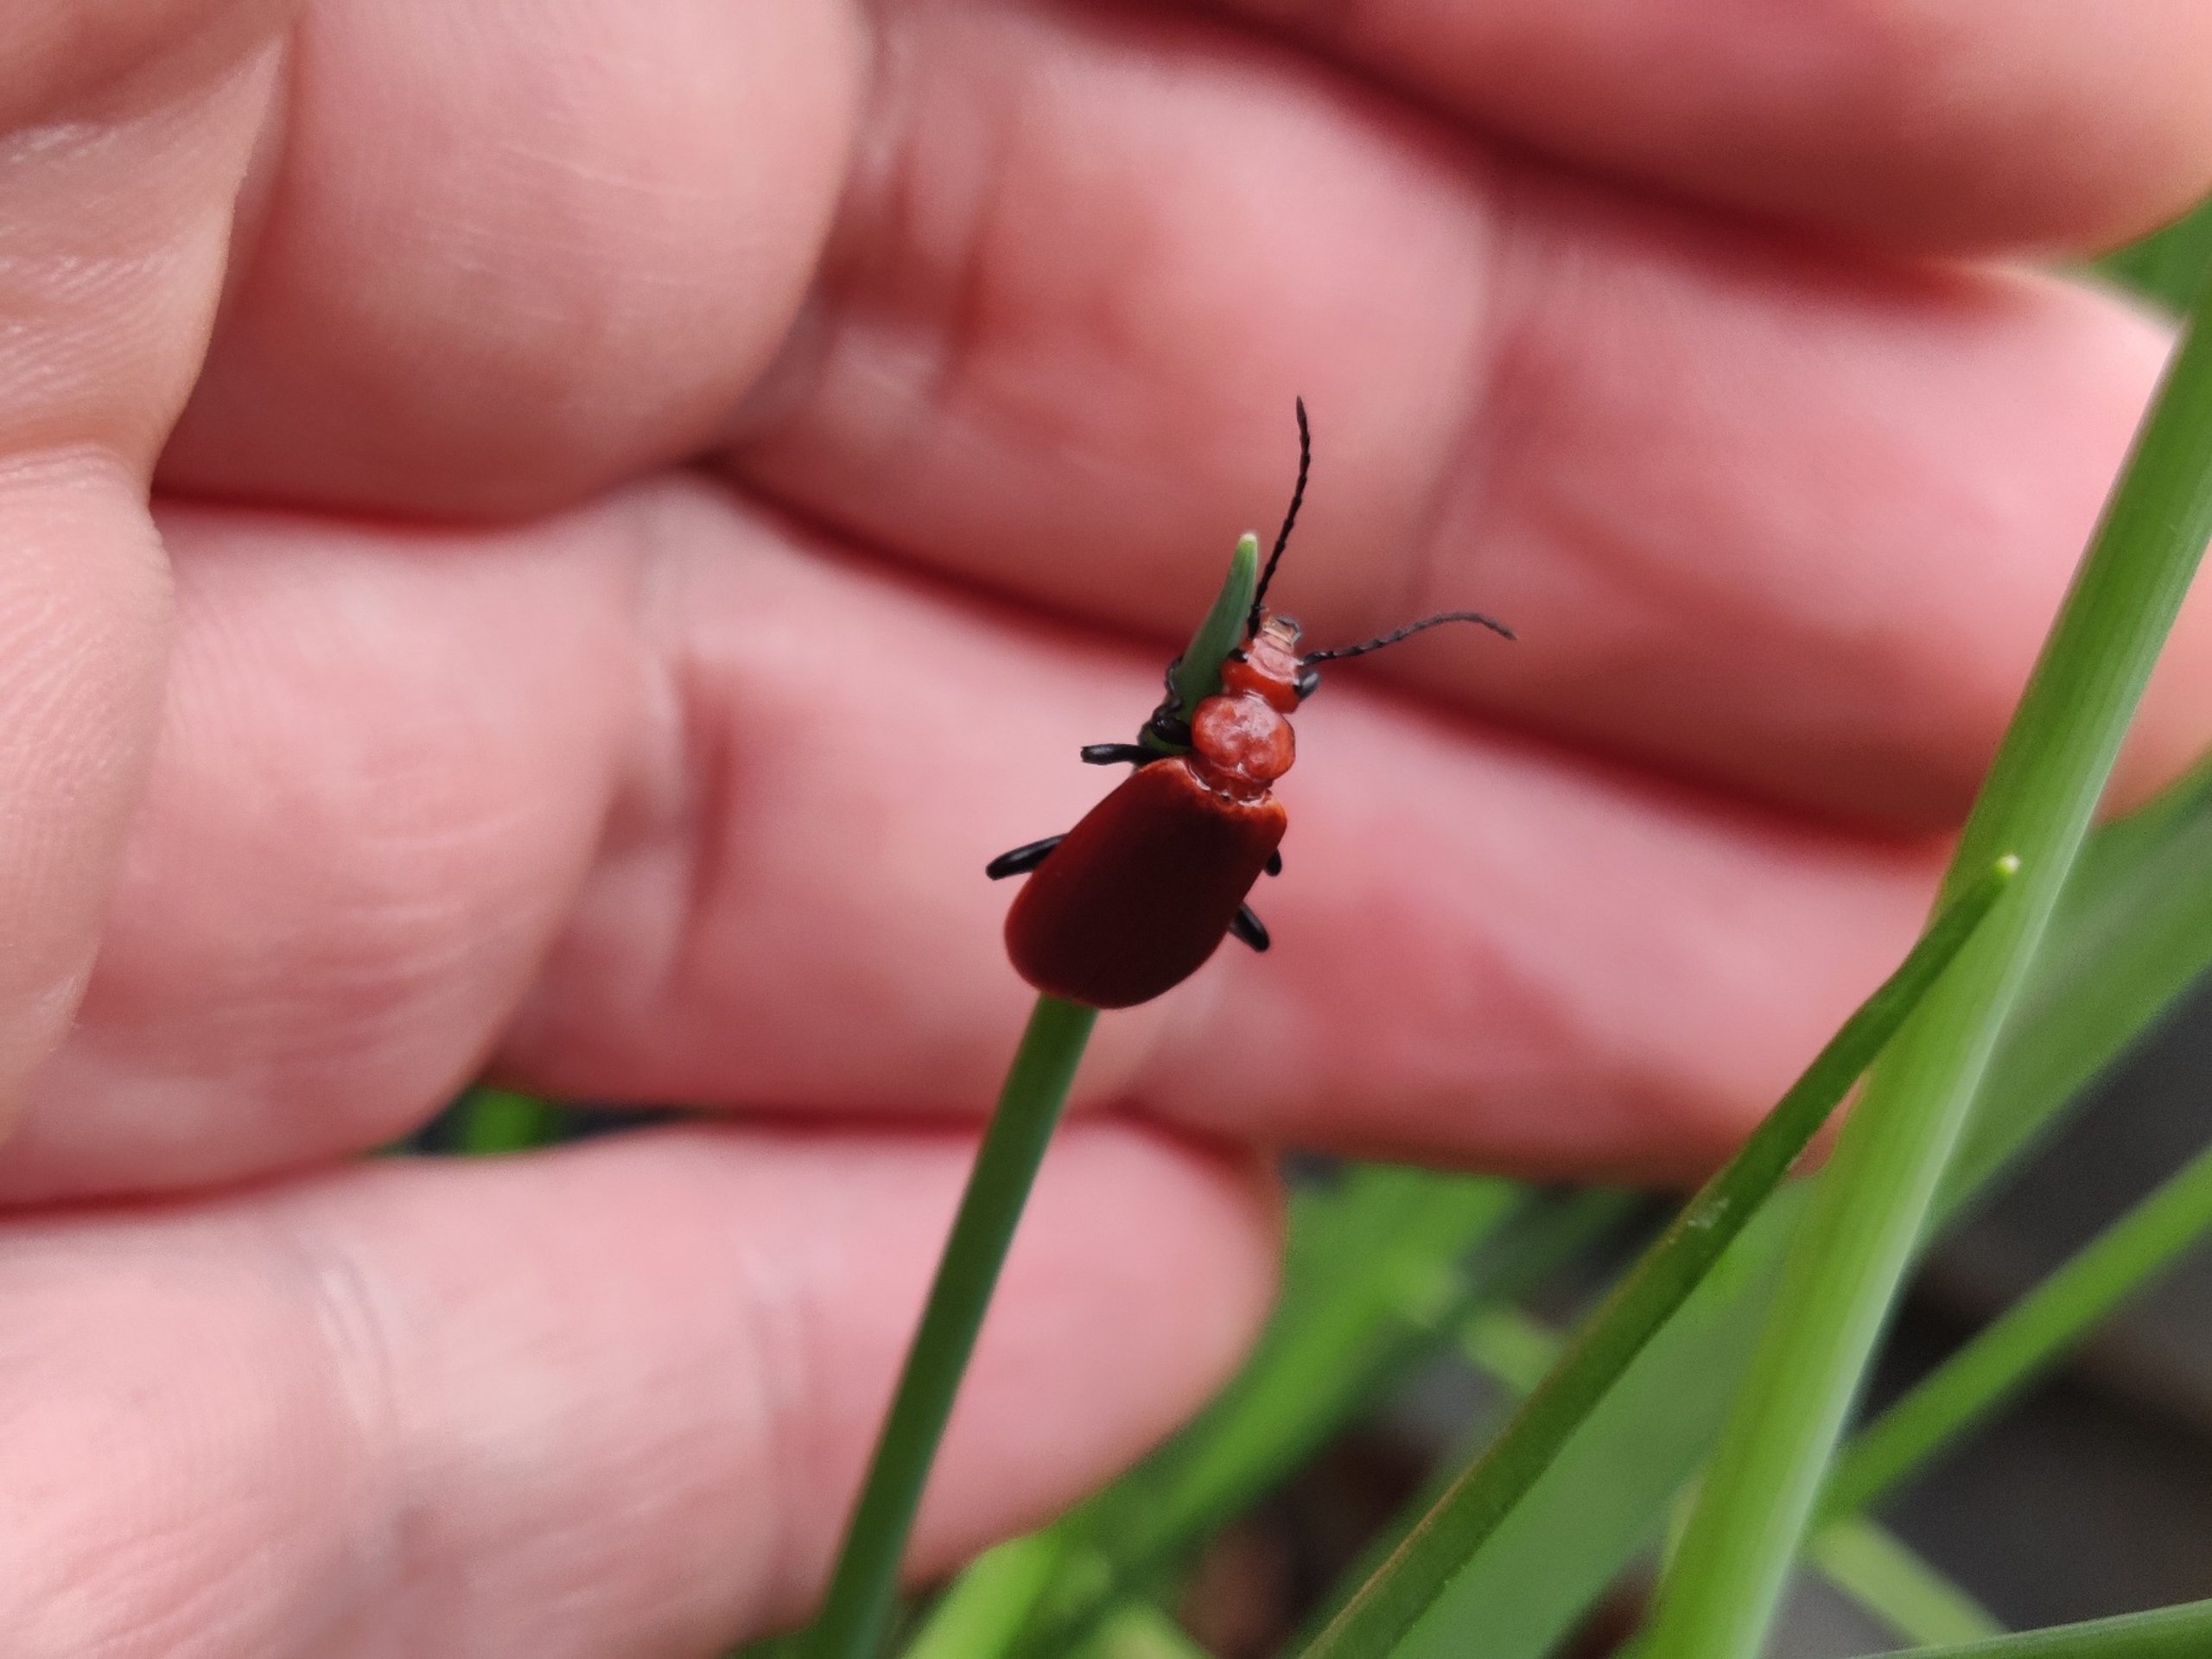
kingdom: Animalia
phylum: Arthropoda
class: Insecta
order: Coleoptera
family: Pyrochroidae
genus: Pyrochroa
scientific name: Pyrochroa serraticornis
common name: Rødhovedet kardinalbille
